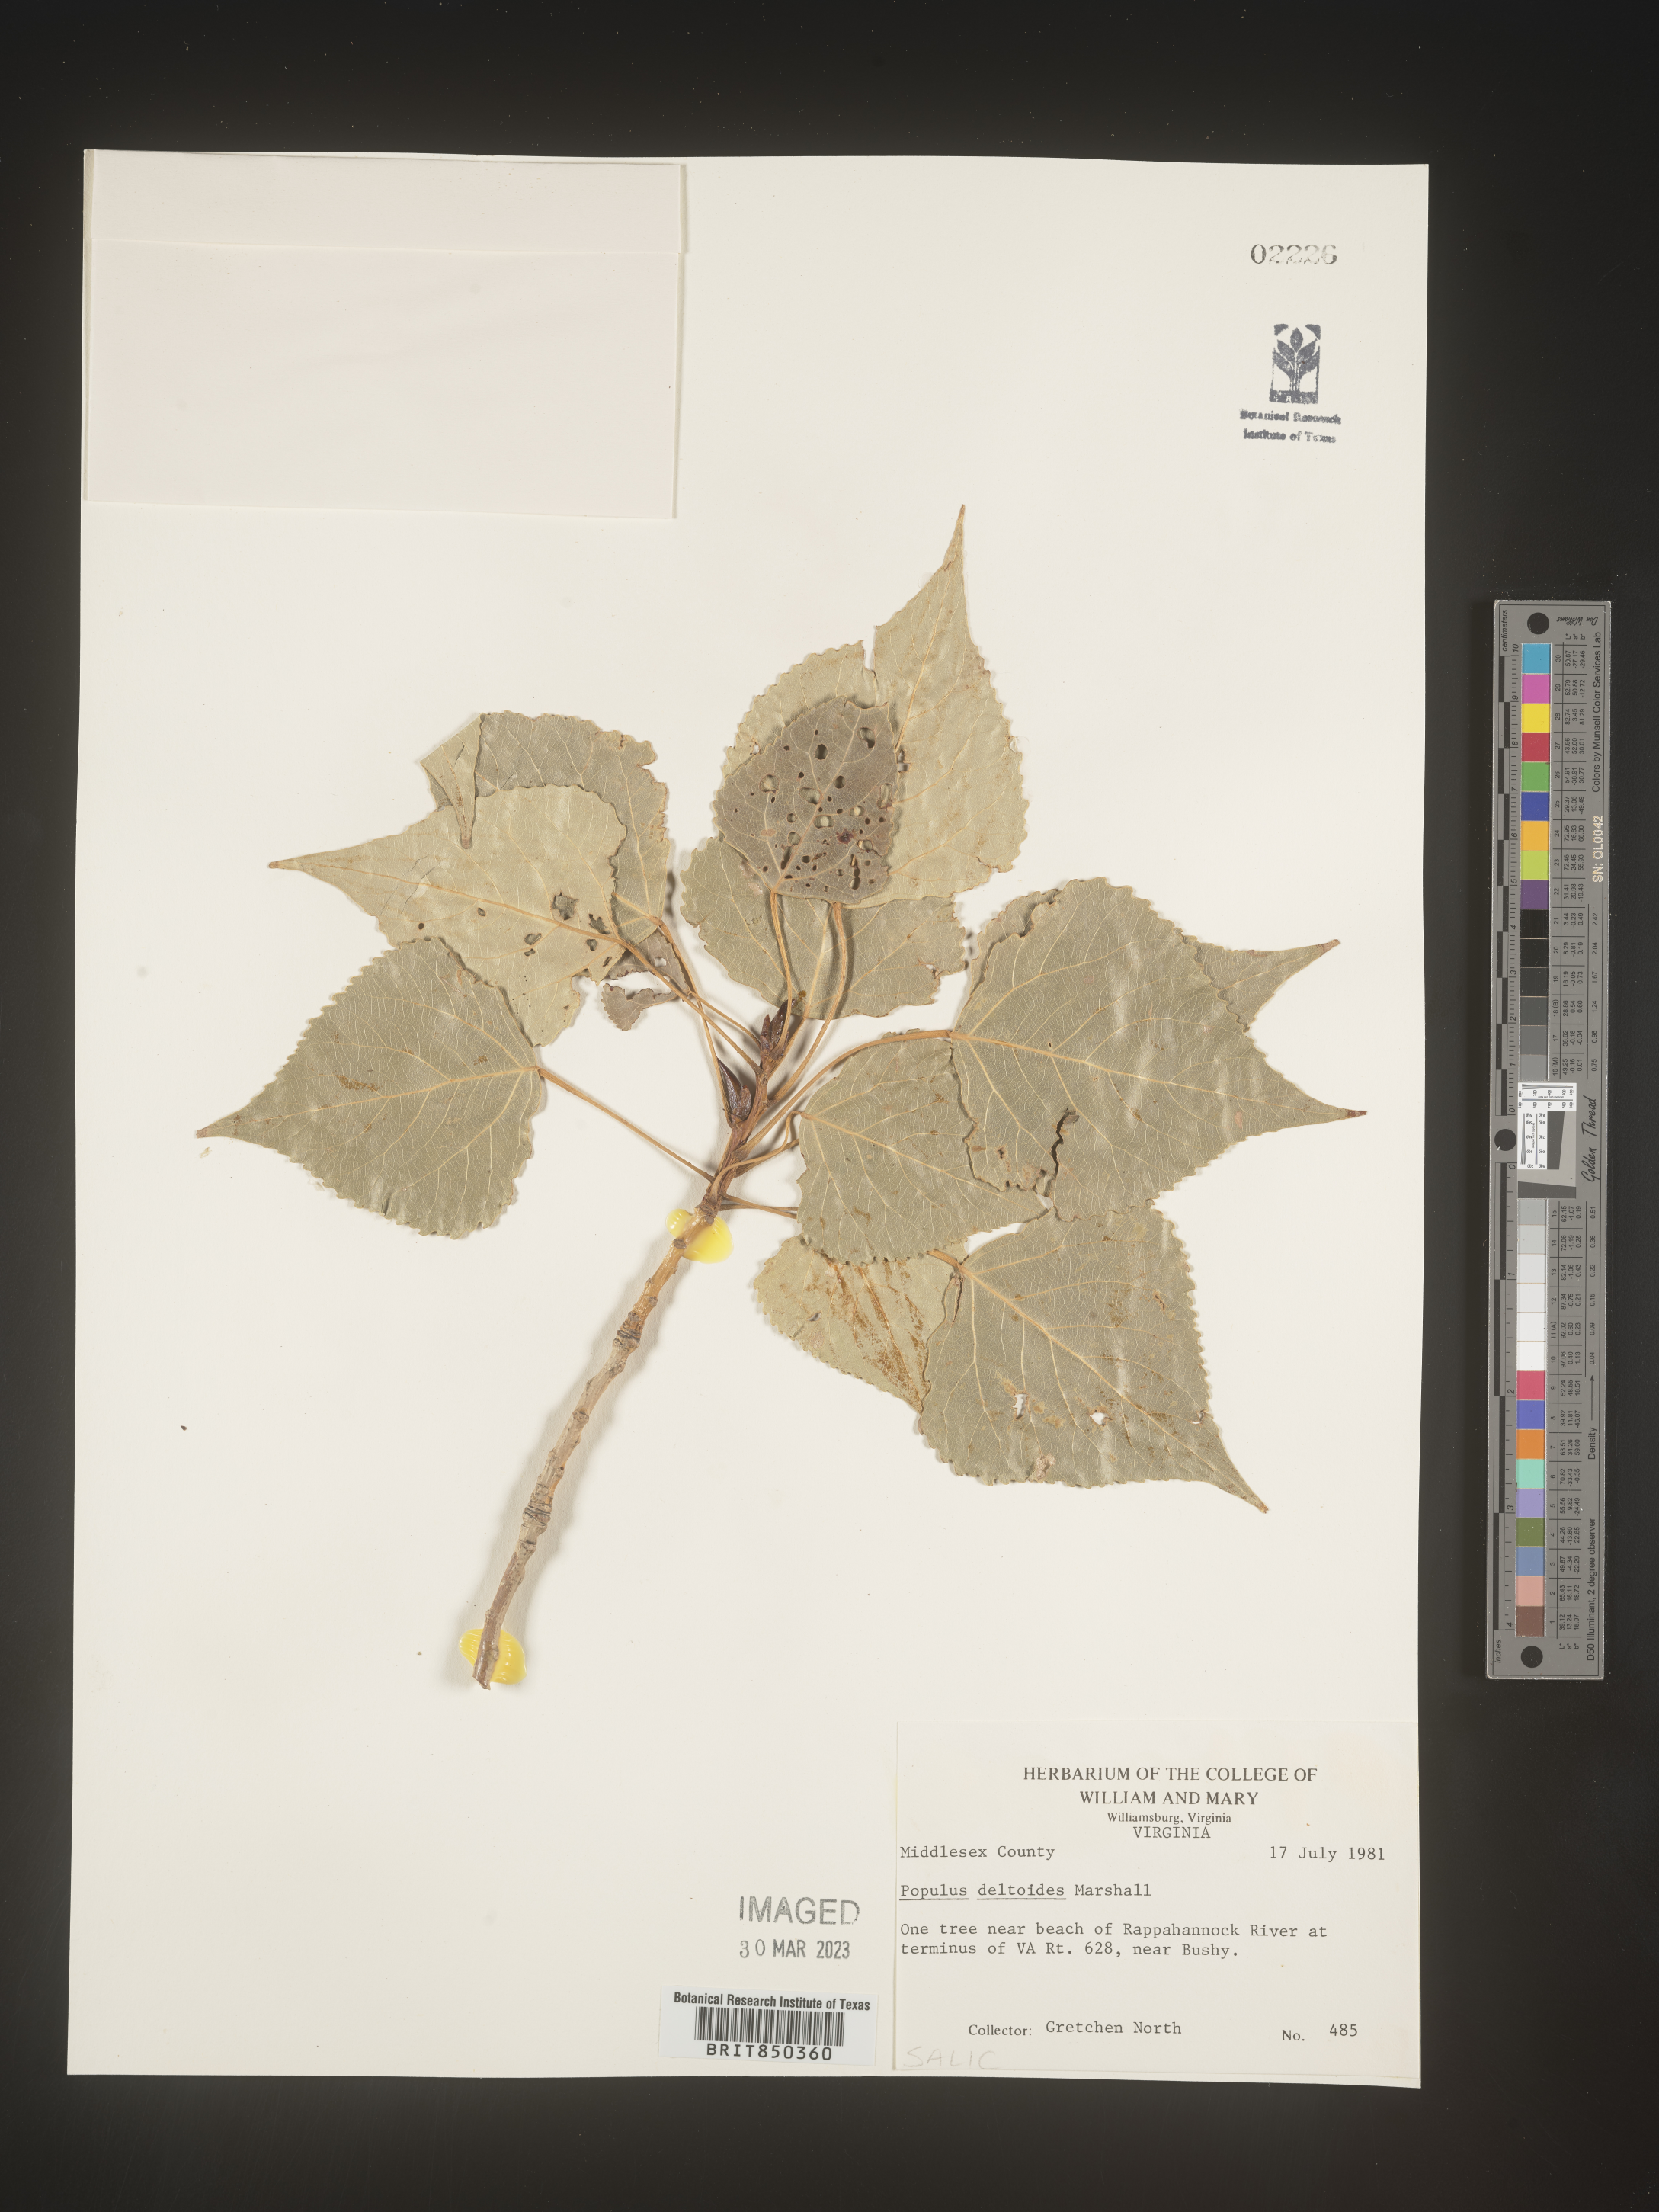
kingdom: Plantae
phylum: Tracheophyta
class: Magnoliopsida
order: Malpighiales
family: Salicaceae
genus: Populus
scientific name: Populus deltoides
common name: Eastern cottonwood
